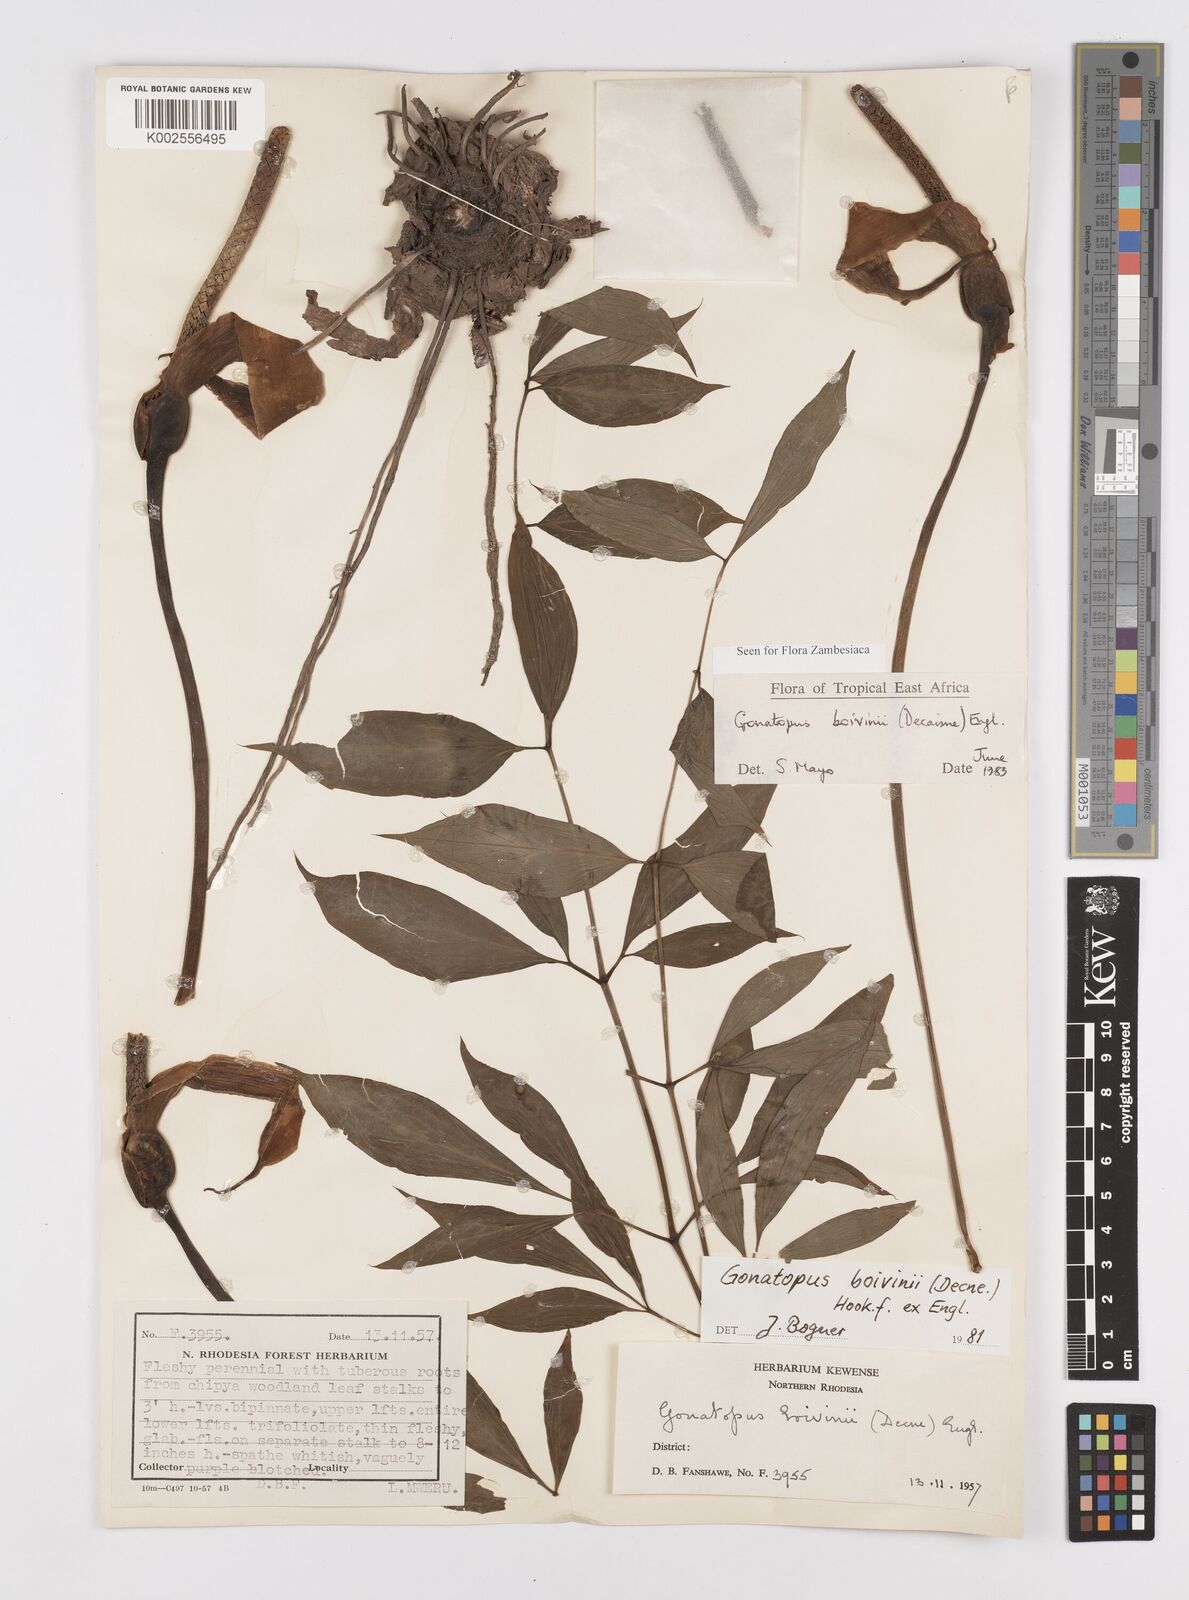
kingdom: Plantae
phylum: Tracheophyta
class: Liliopsida
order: Alismatales
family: Araceae
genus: Gonatopus
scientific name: Gonatopus boivinii
